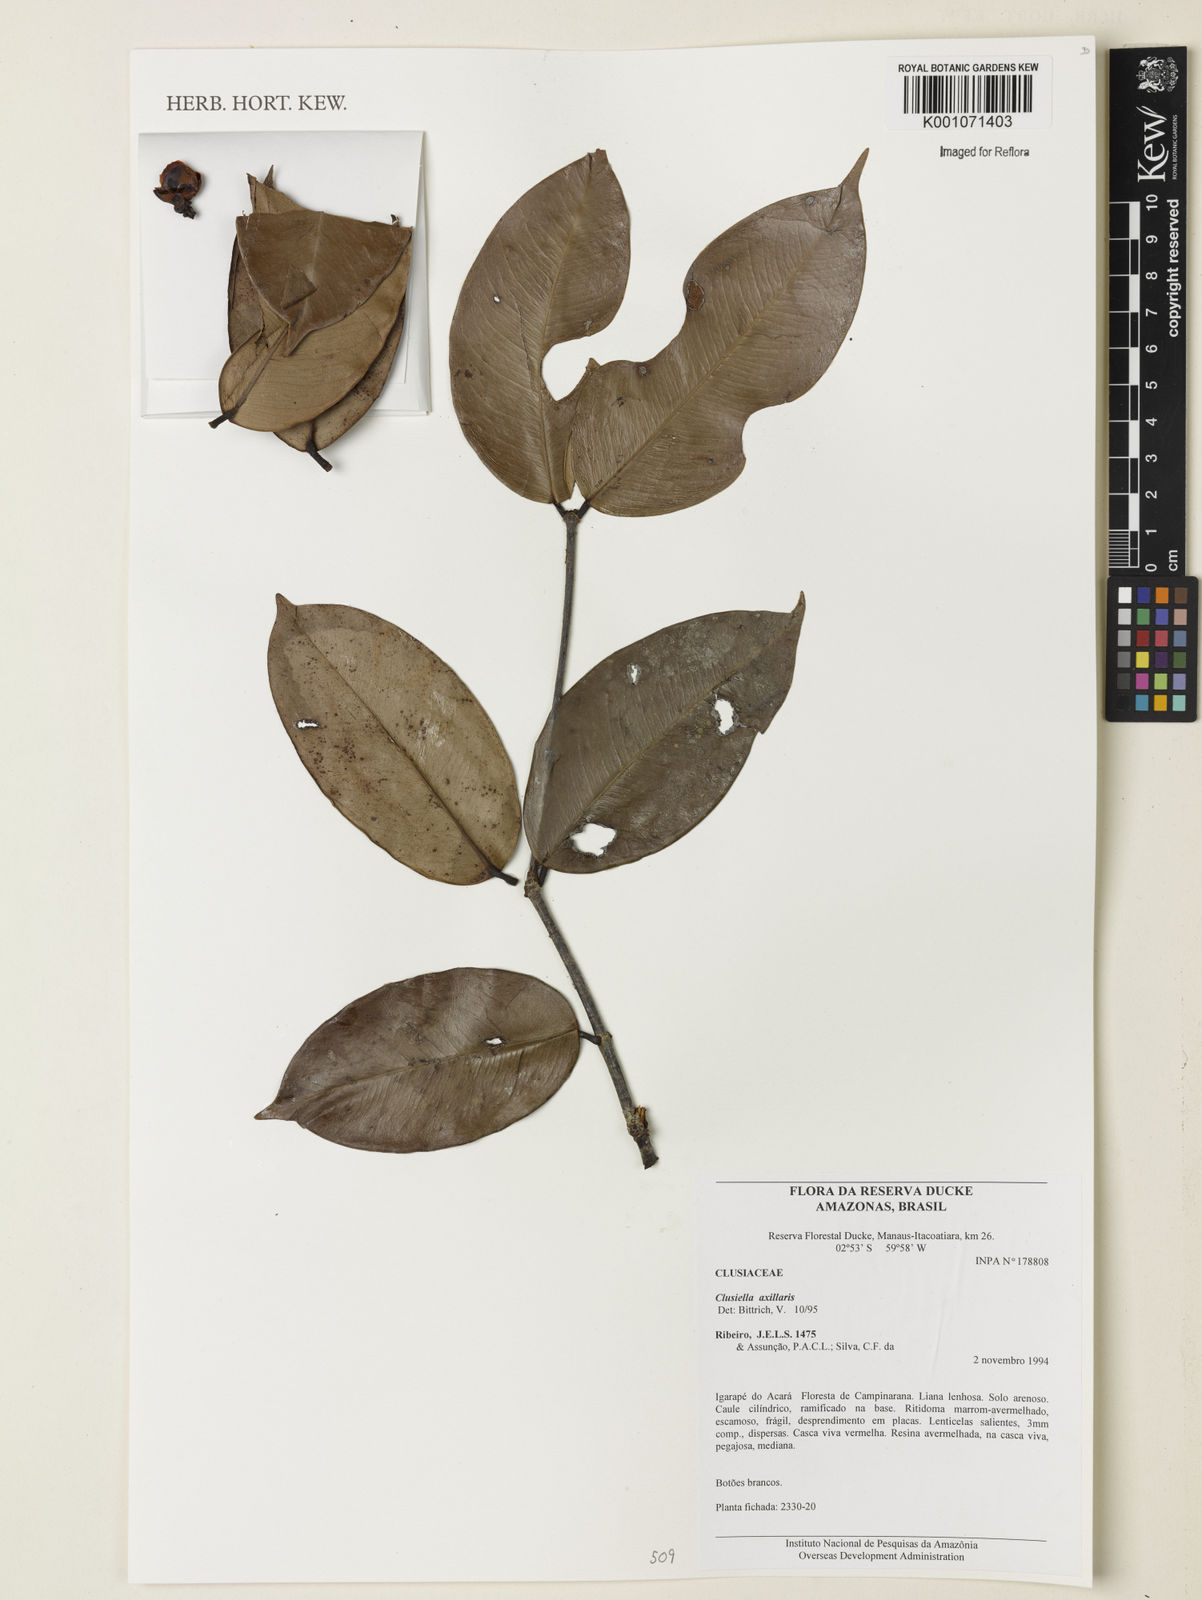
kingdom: Plantae
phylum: Tracheophyta
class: Magnoliopsida
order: Malpighiales
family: Calophyllaceae
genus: Clusiella
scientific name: Clusiella axillaris
